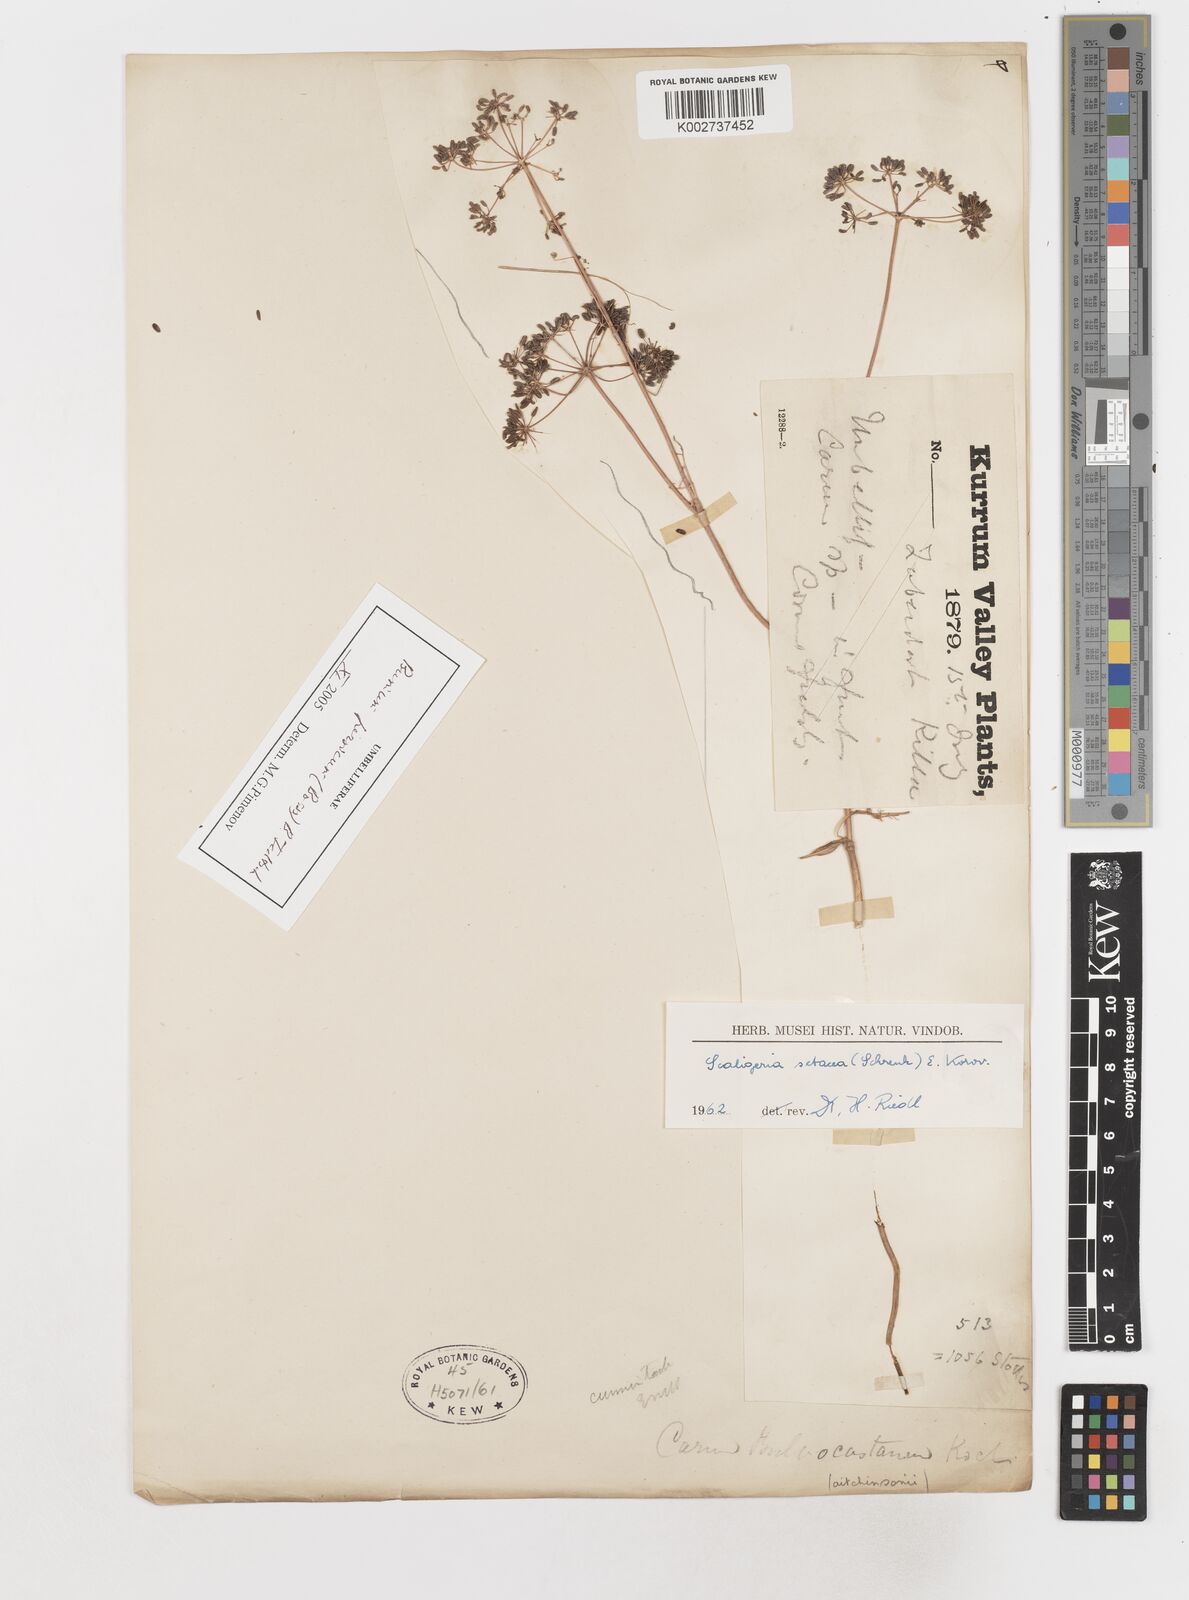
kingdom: Plantae
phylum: Tracheophyta
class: Magnoliopsida
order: Apiales
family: Apiaceae
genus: Elwendia
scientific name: Elwendia setacea
